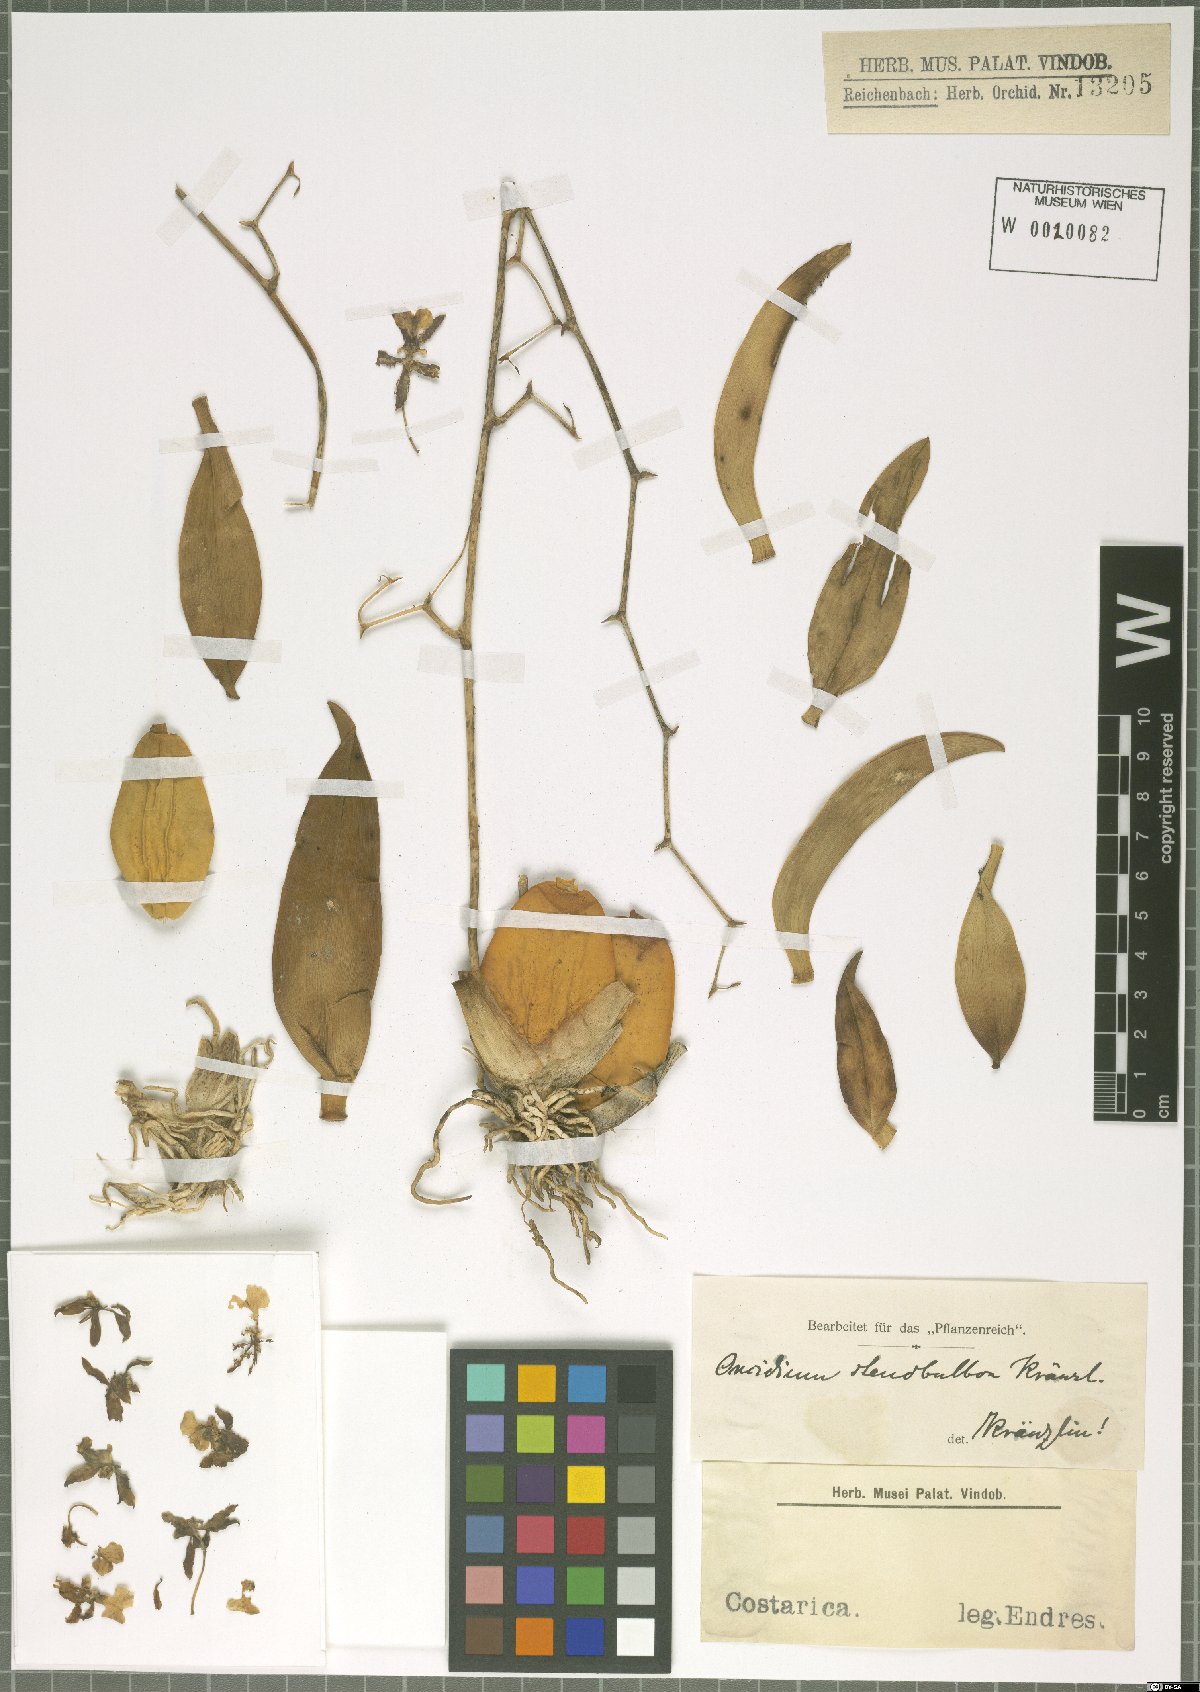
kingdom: Plantae
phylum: Tracheophyta
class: Liliopsida
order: Asparagales
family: Orchidaceae
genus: Oncidium
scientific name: Oncidium stenobulbon
